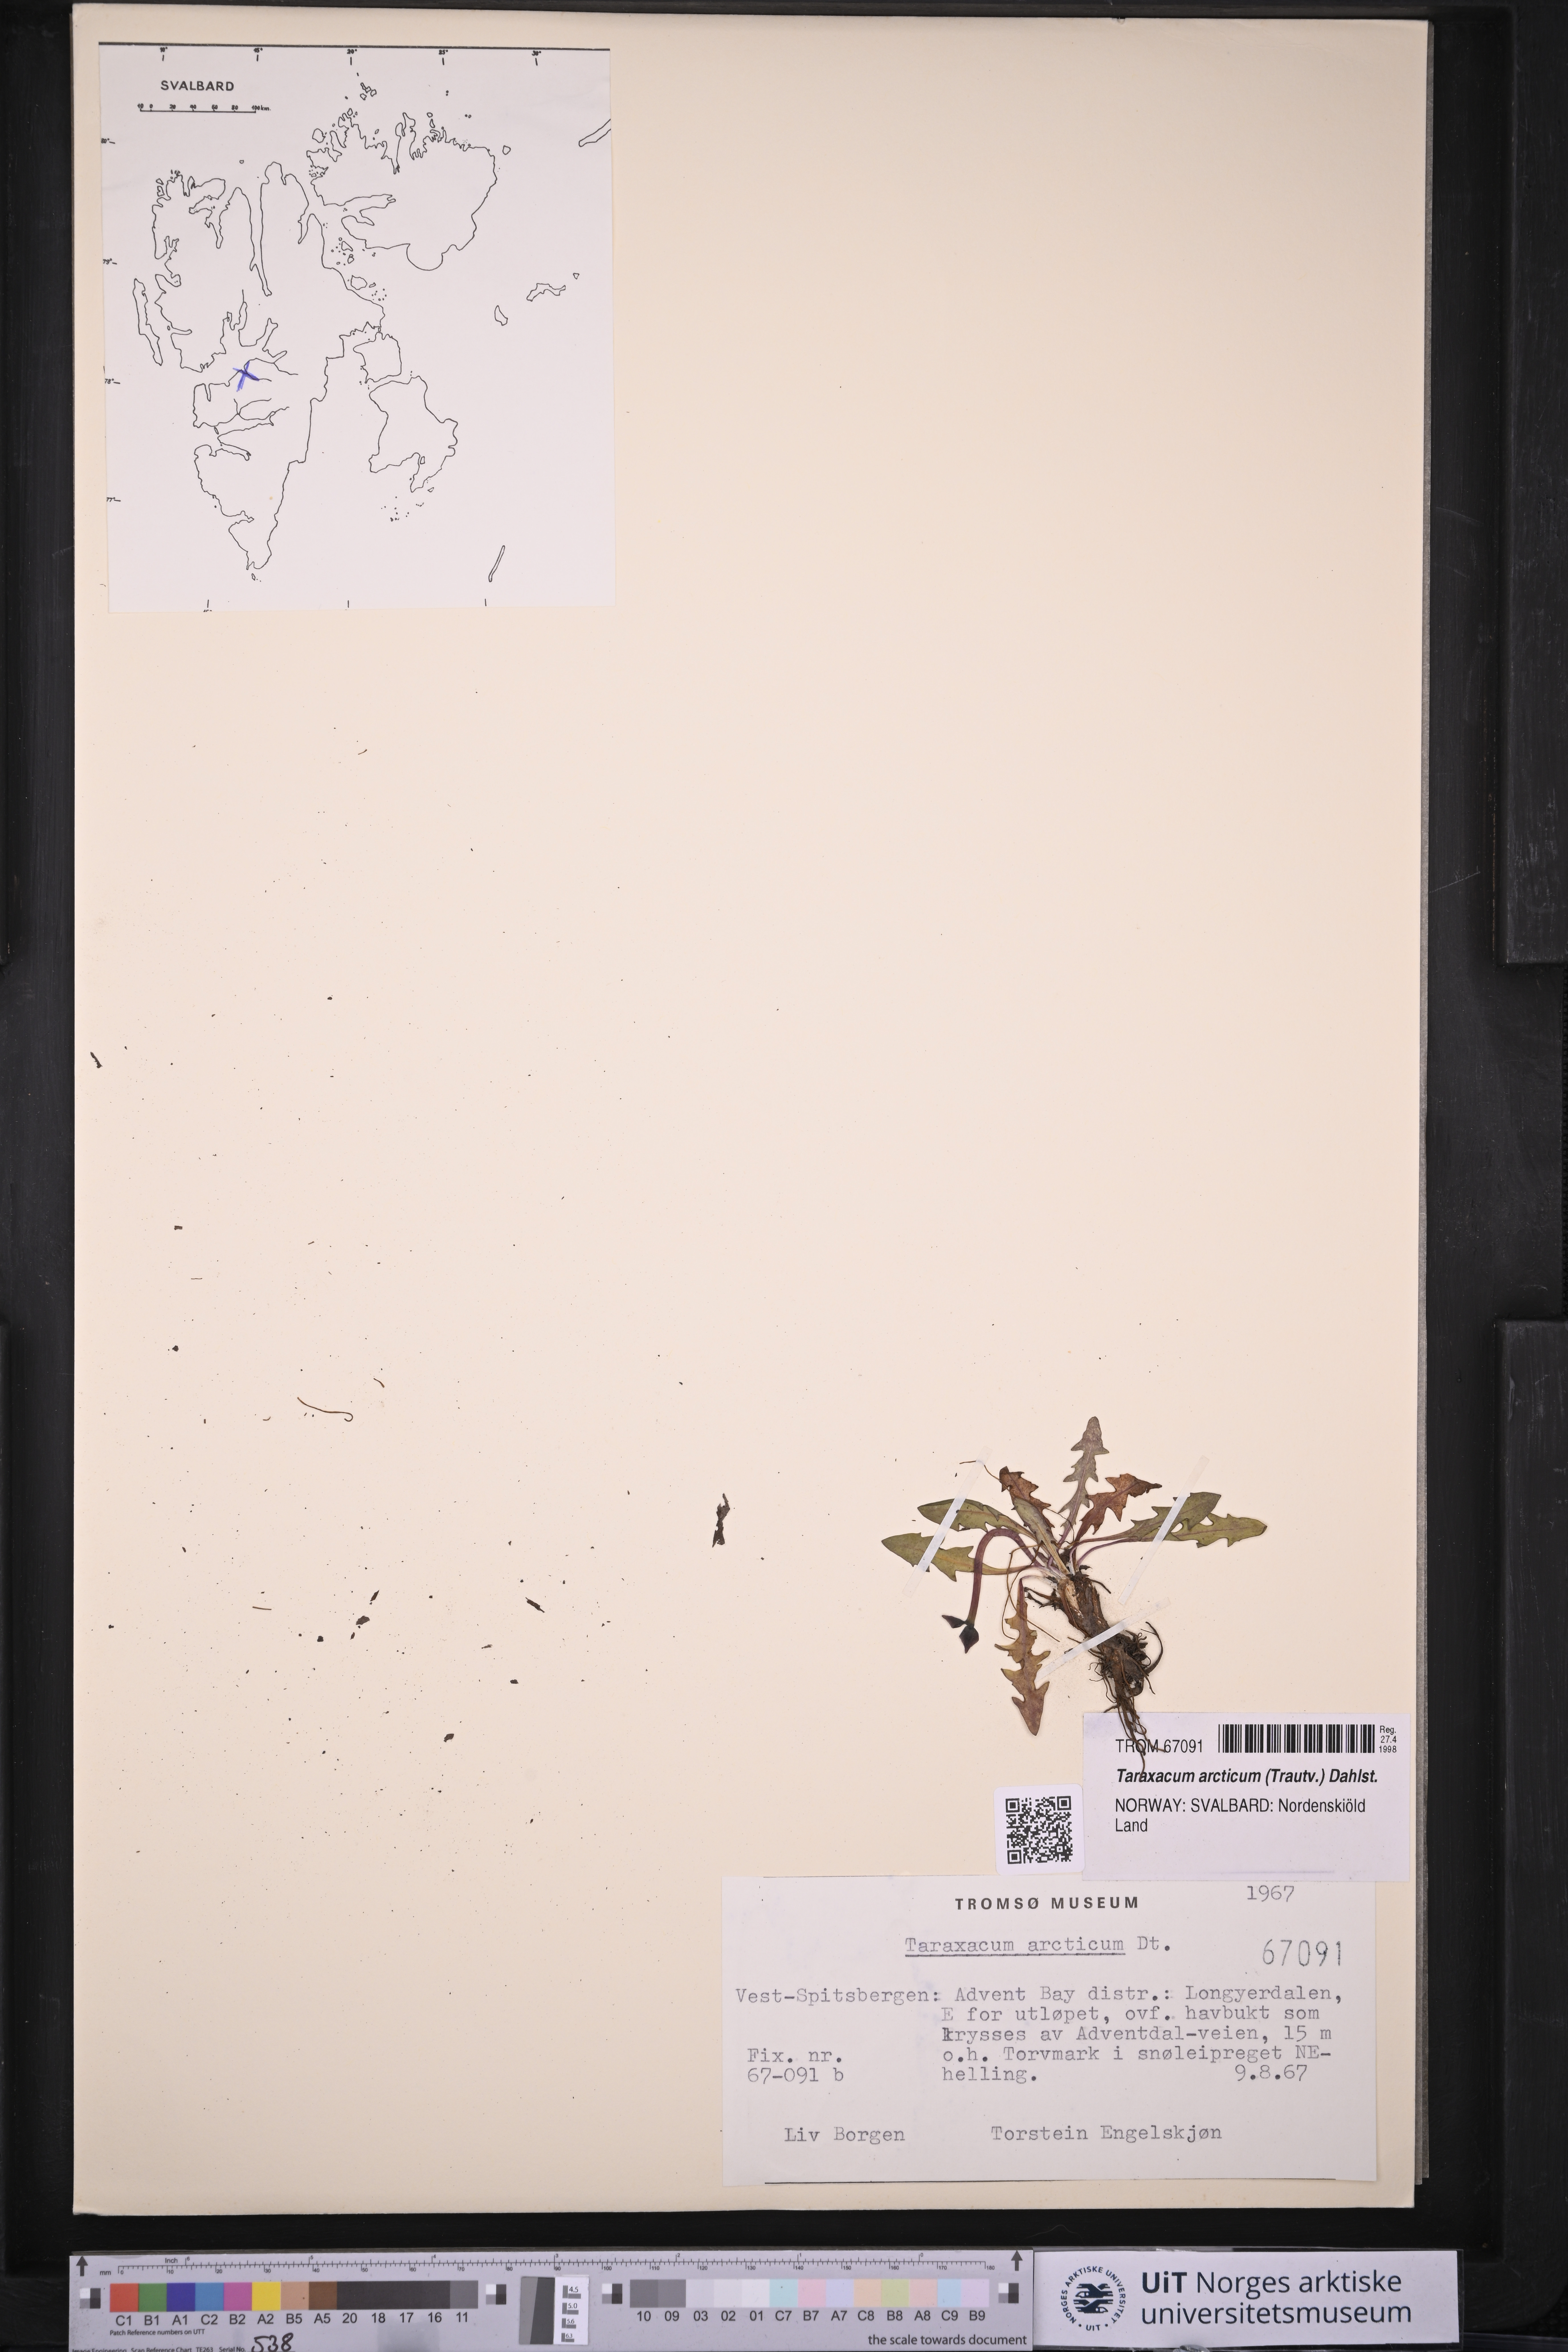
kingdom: Plantae
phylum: Tracheophyta
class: Magnoliopsida
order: Asterales
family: Asteraceae
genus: Taraxacum
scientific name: Taraxacum arcticum
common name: Arctic dandelion
